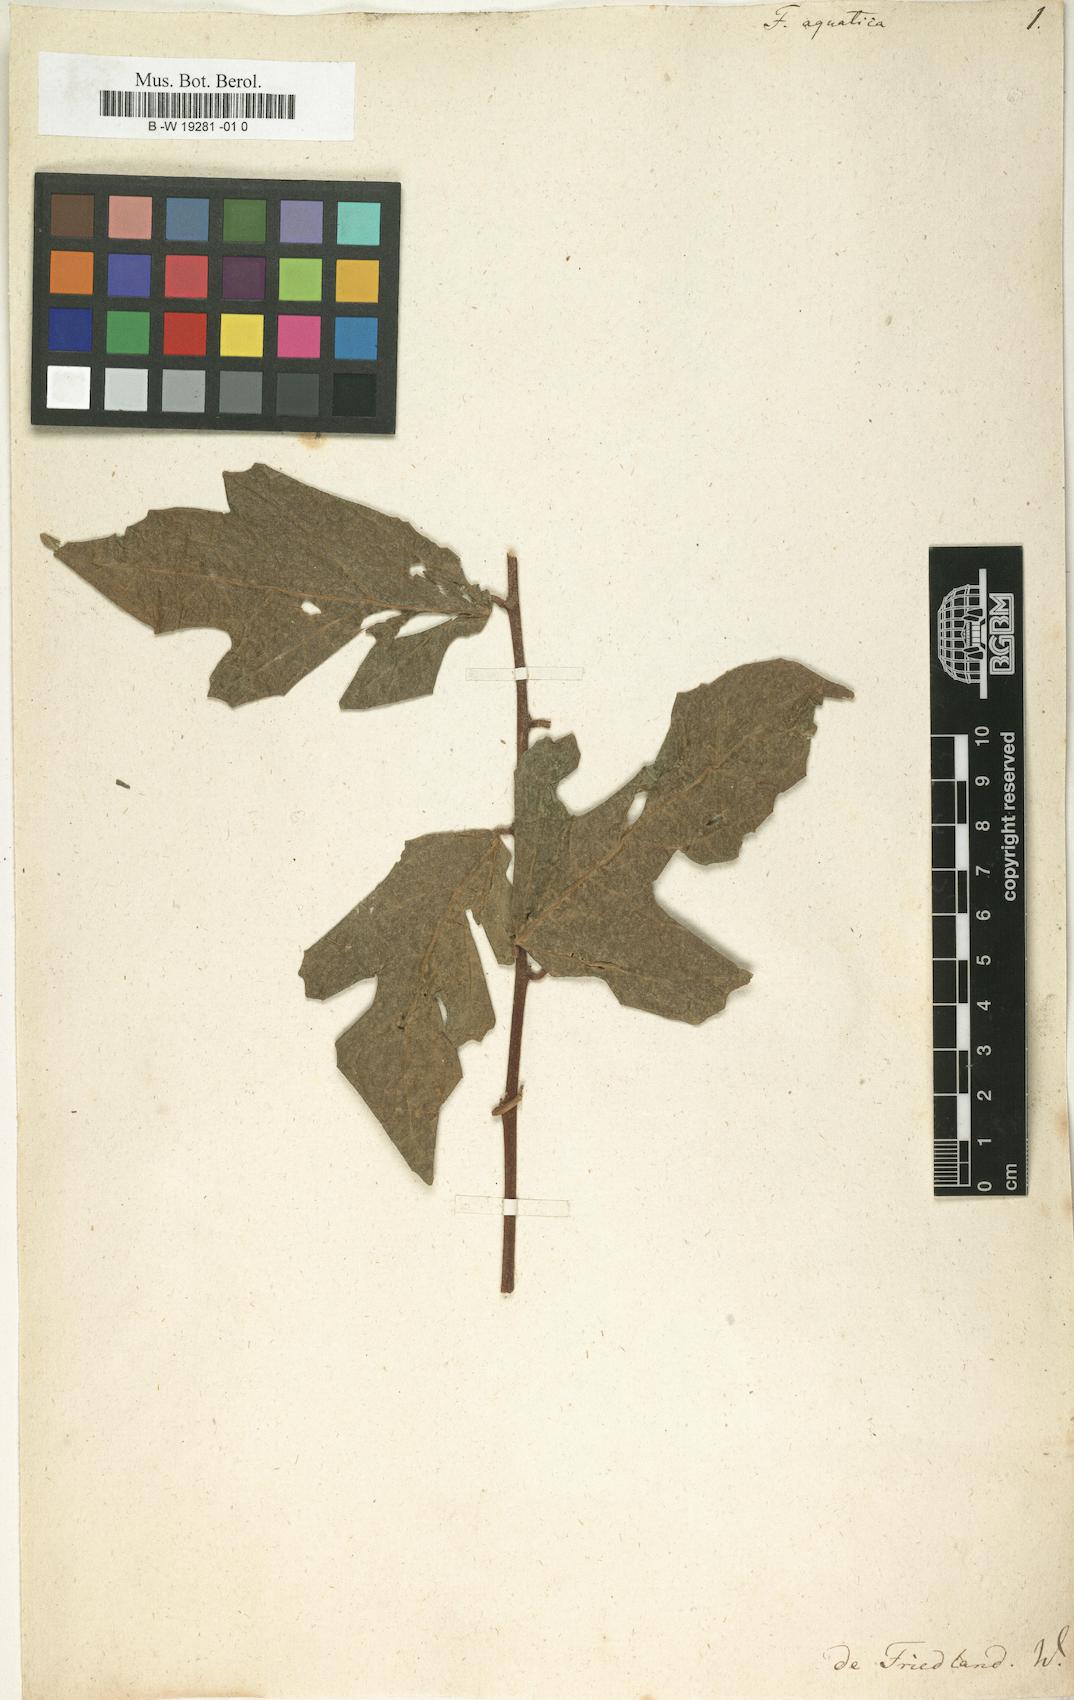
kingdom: Plantae
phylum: Tracheophyta
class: Magnoliopsida
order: Rosales
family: Moraceae
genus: Ficus
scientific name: Ficus heterophylla
